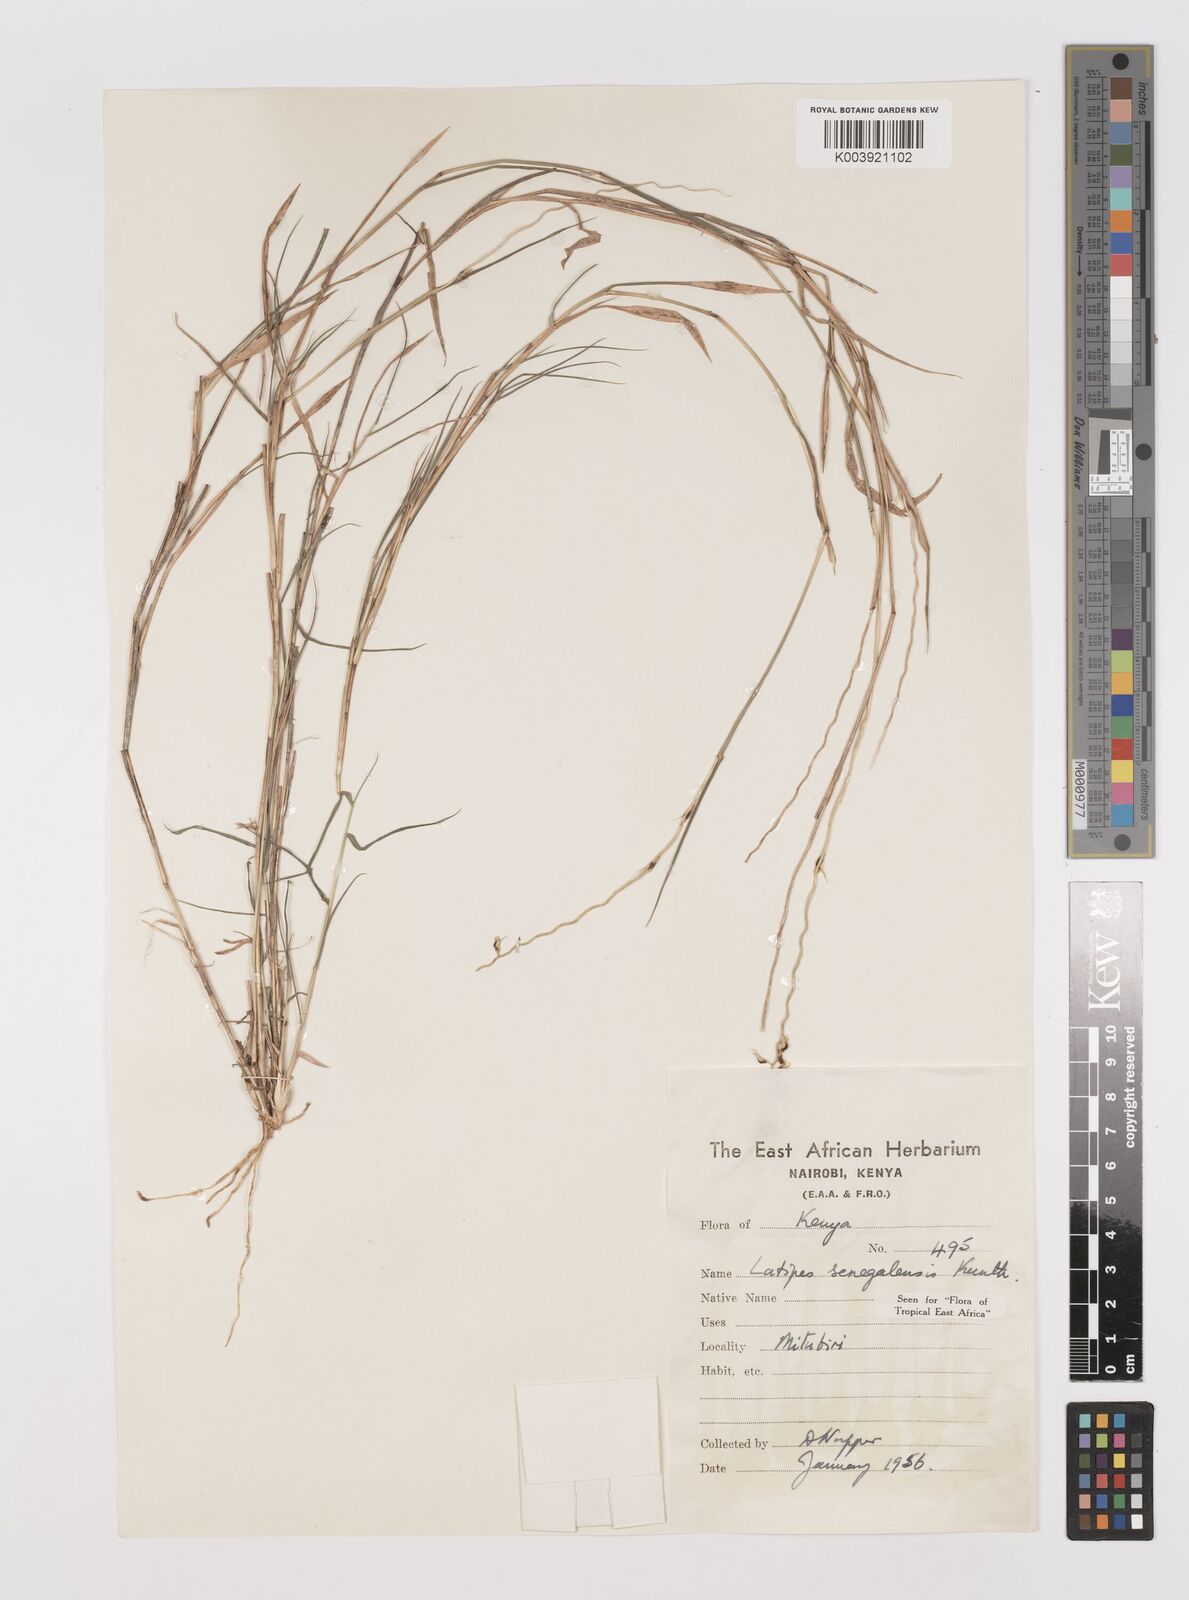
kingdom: Plantae
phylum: Tracheophyta
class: Liliopsida
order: Poales
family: Poaceae
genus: Leptothrium
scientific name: Leptothrium senegalense
